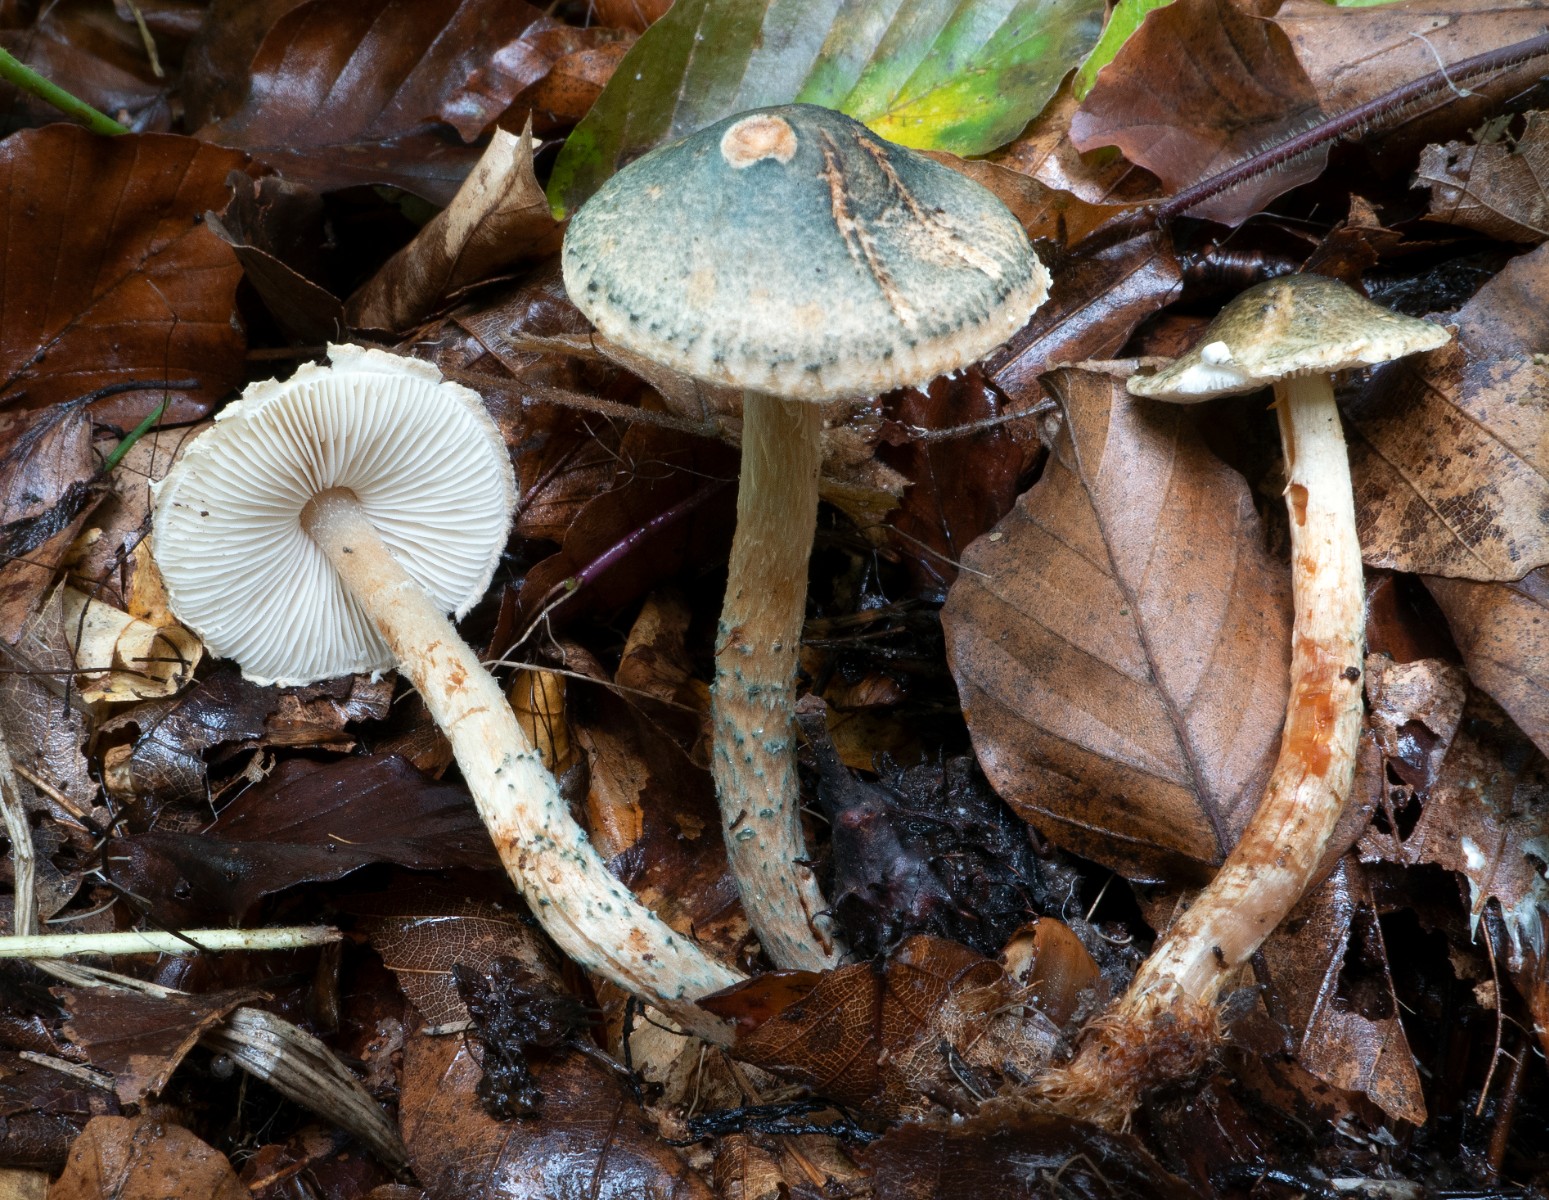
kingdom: Fungi
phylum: Basidiomycota
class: Agaricomycetes
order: Agaricales
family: Agaricaceae
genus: Lepiota
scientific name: Lepiota grangei
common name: grønskællet parasolhat
